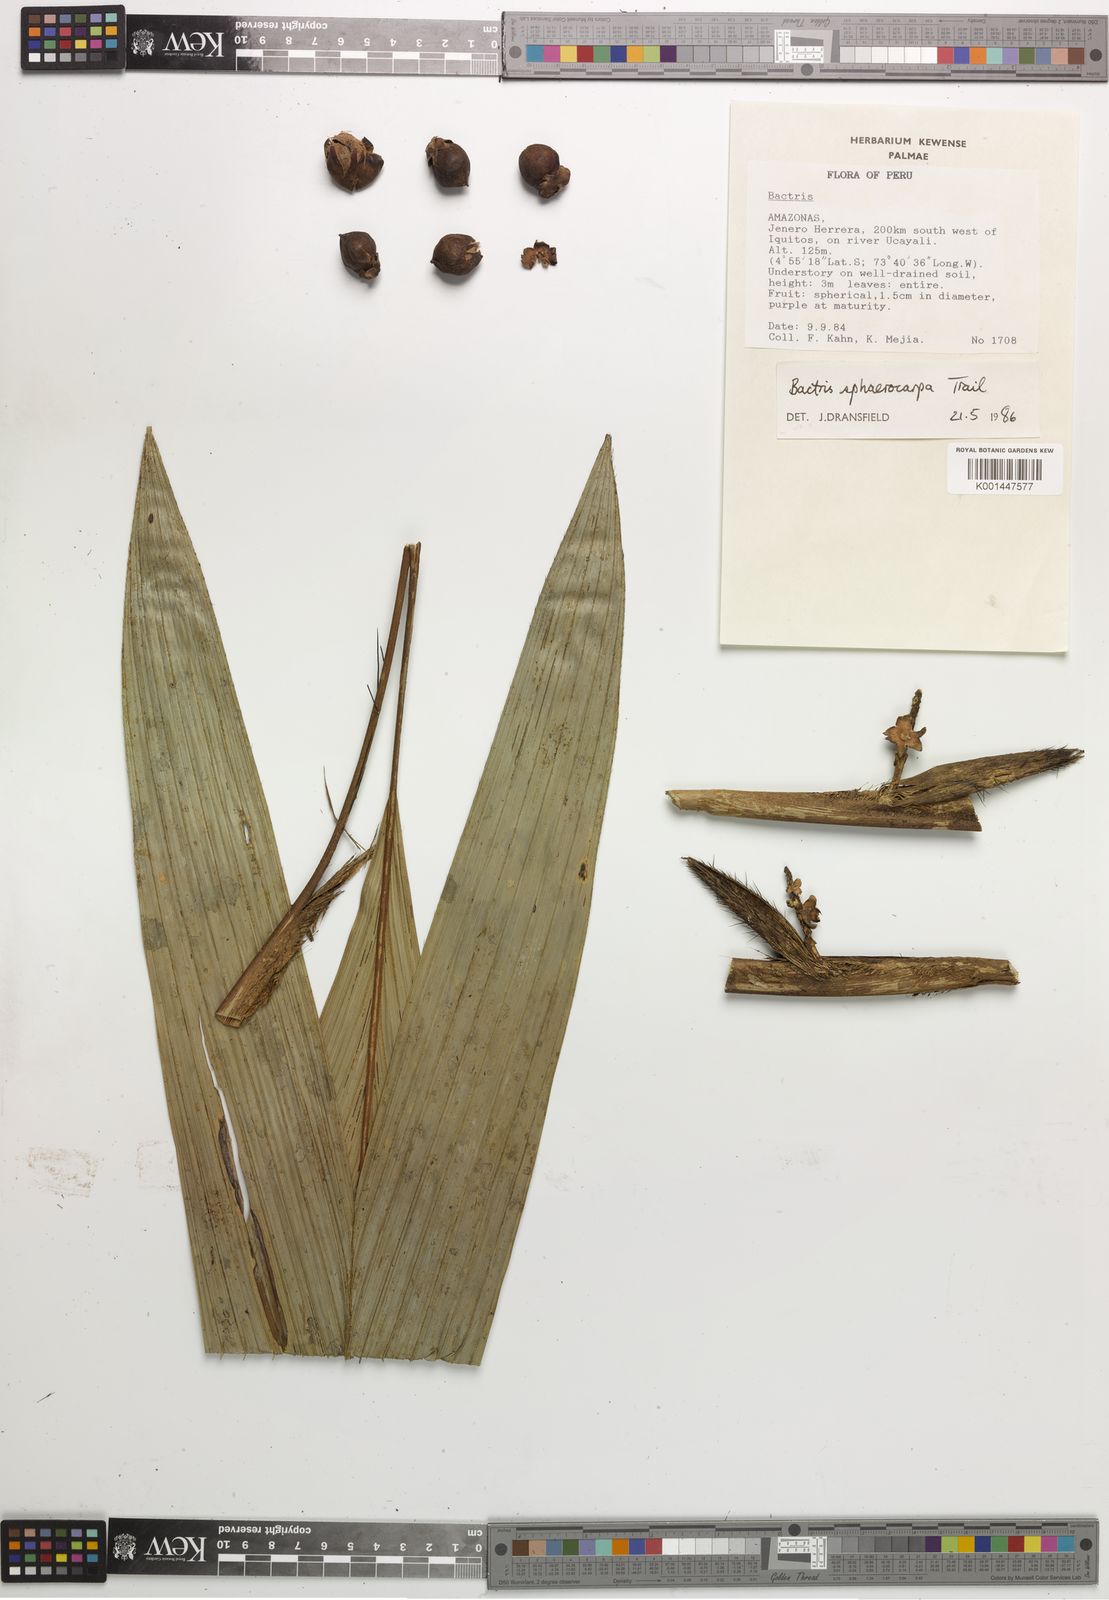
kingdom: Plantae
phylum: Tracheophyta
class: Liliopsida
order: Arecales
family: Arecaceae
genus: Bactris
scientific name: Bactris sphaerocarpa
